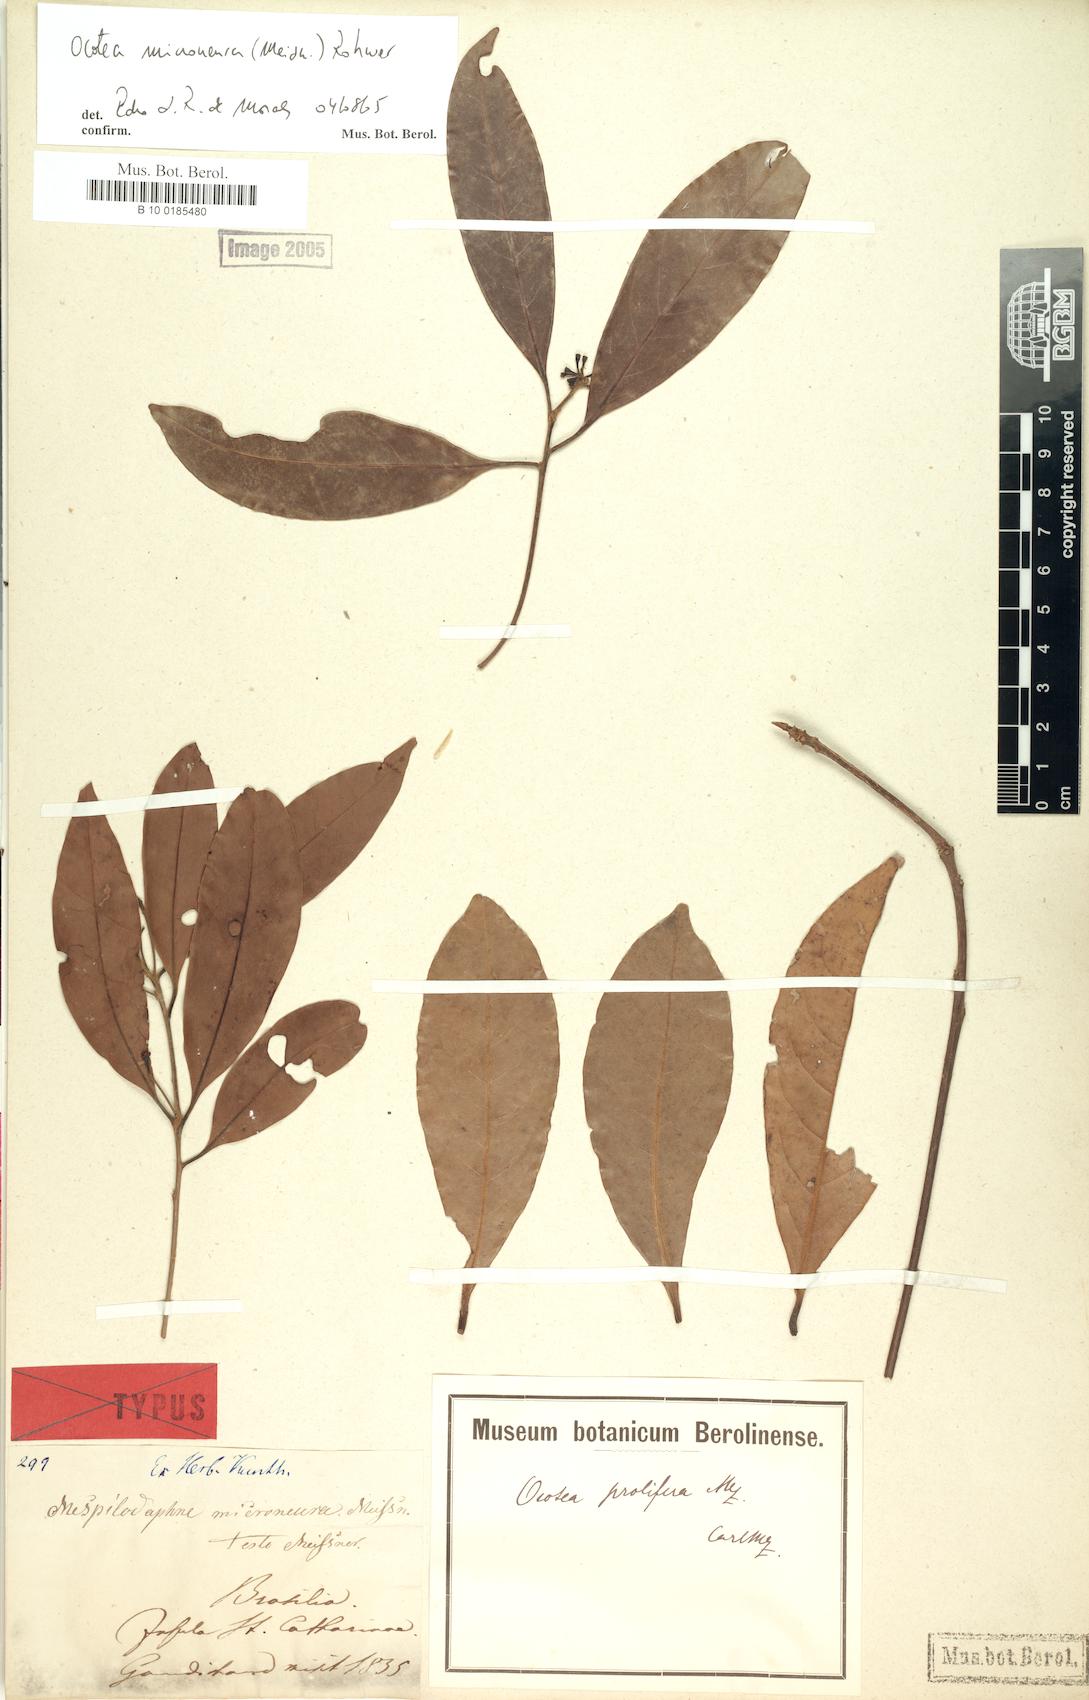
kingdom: Plantae
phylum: Tracheophyta
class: Magnoliopsida
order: Laurales
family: Lauraceae
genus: Mespilodaphne
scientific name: Mespilodaphne microneura
